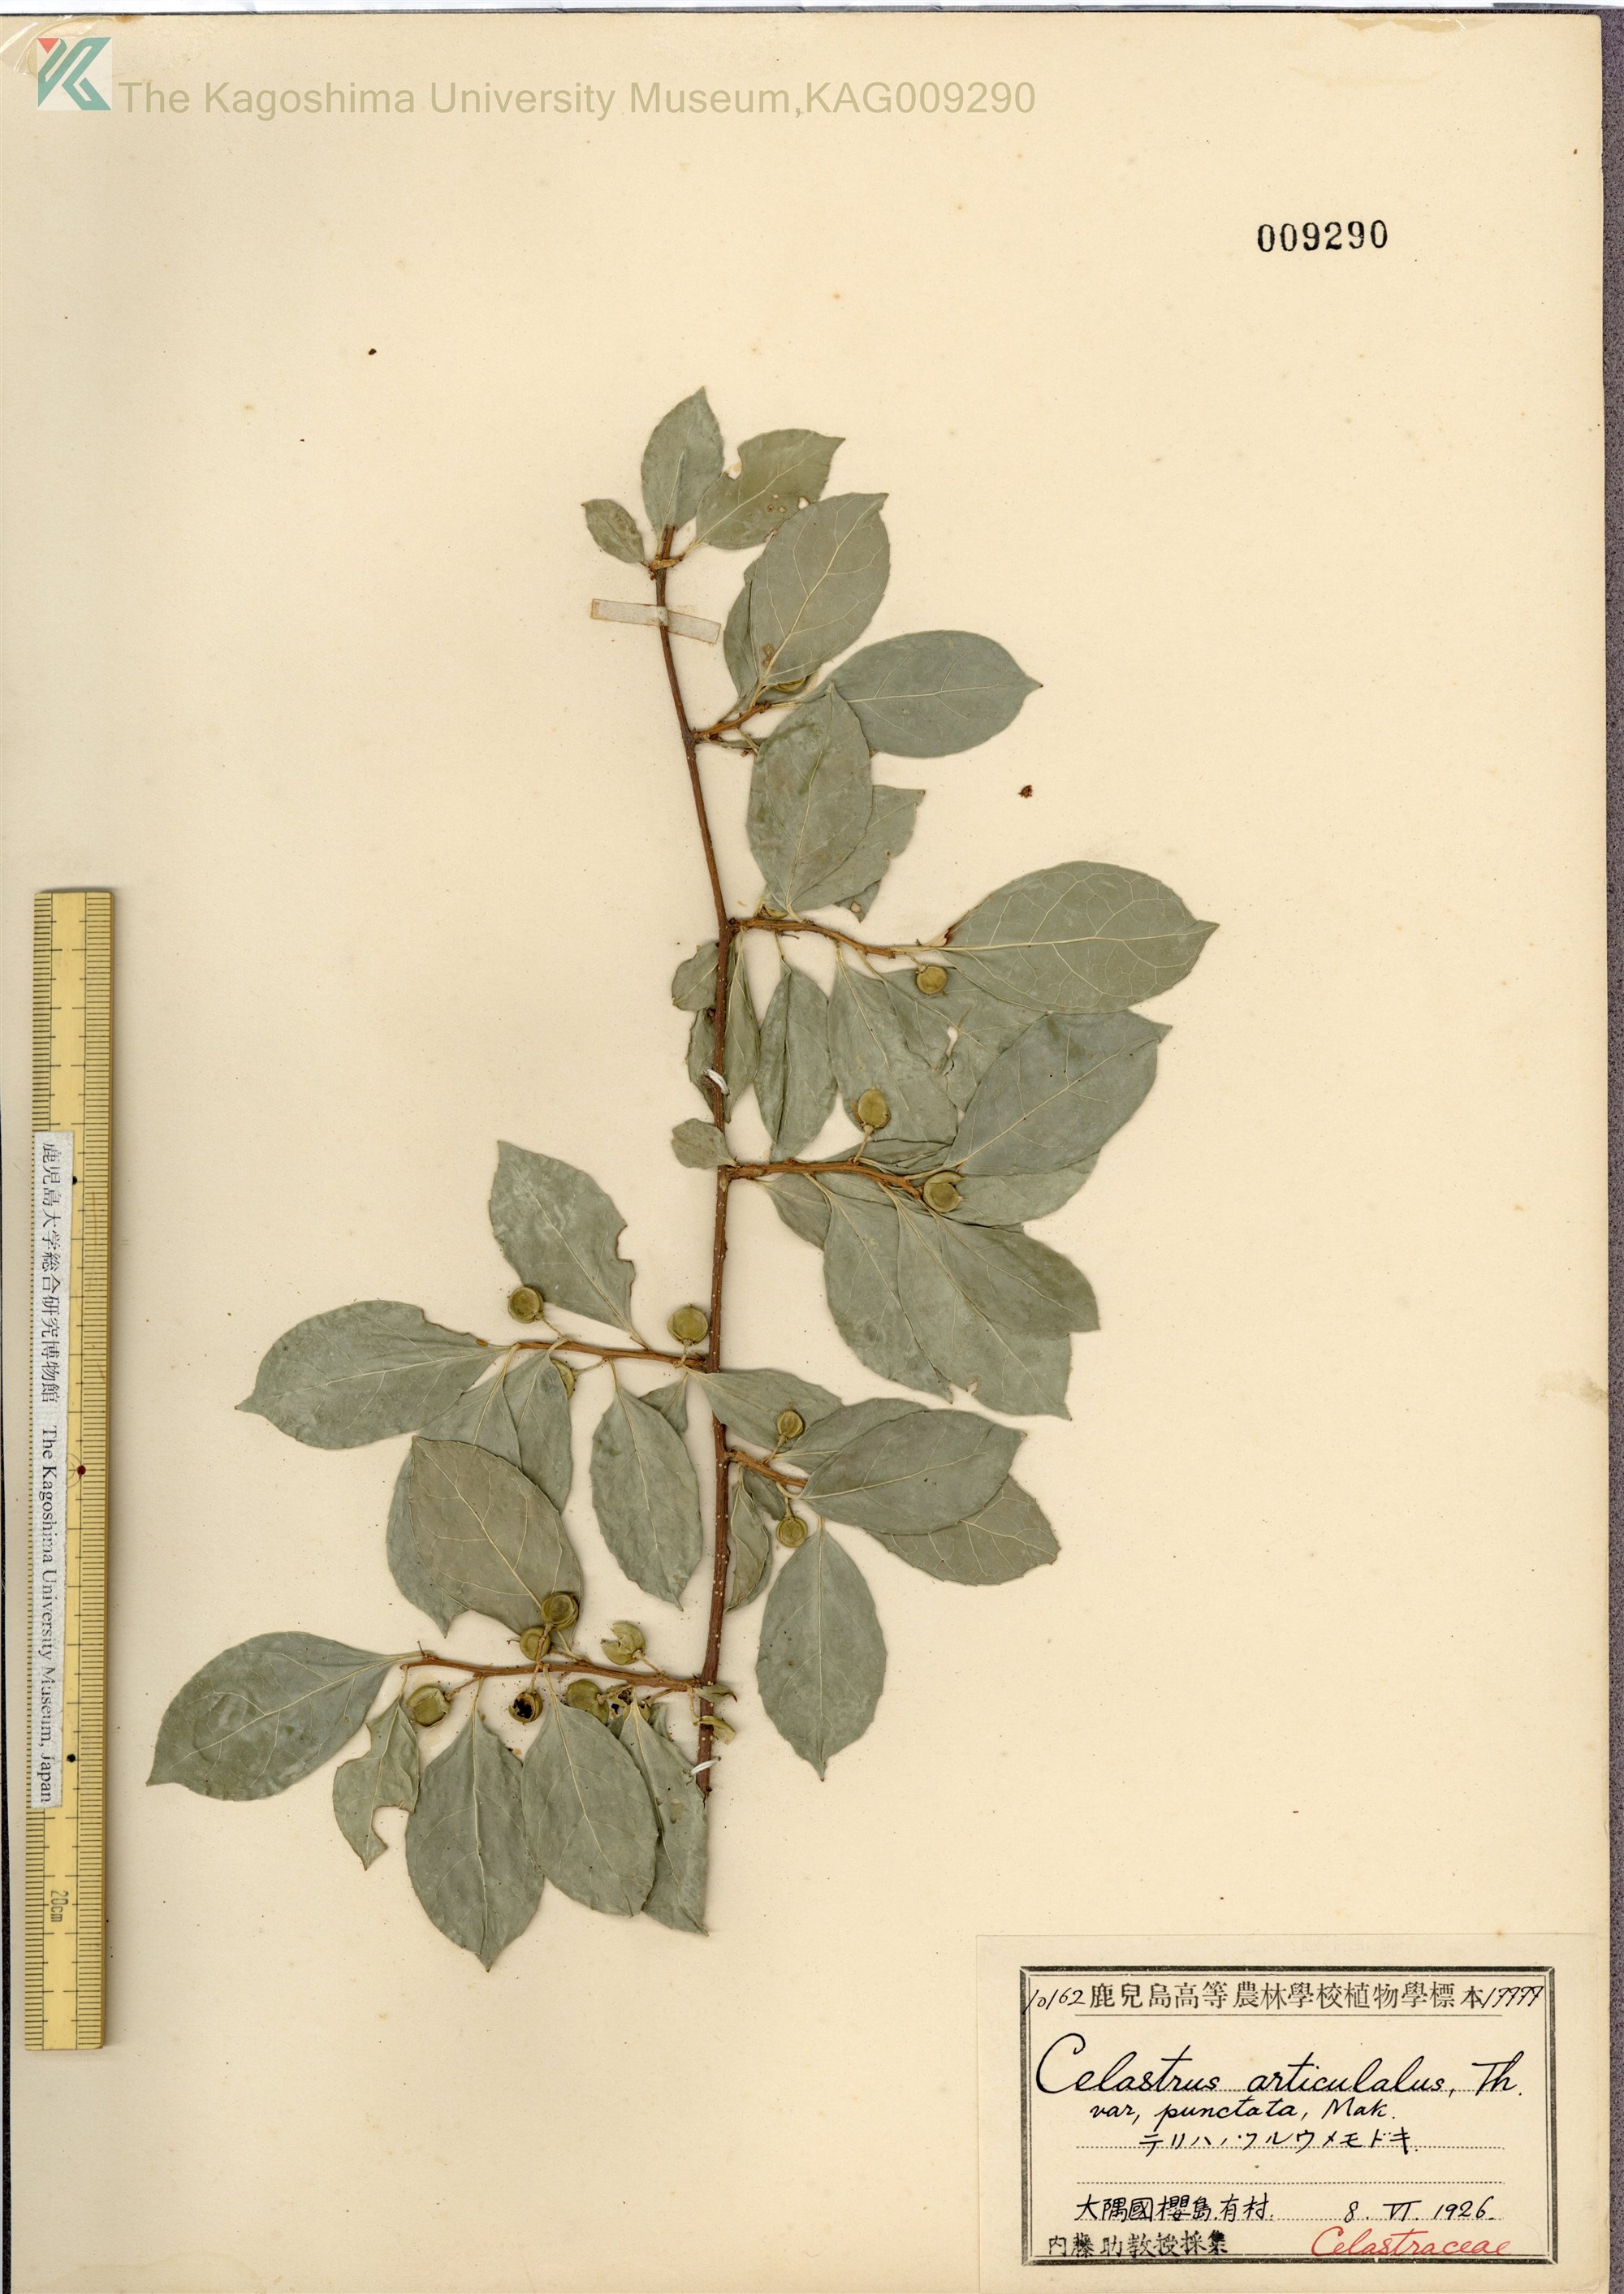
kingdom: Plantae
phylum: Tracheophyta
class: Magnoliopsida
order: Celastrales
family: Celastraceae
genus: Celastrus
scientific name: Celastrus punctatus
